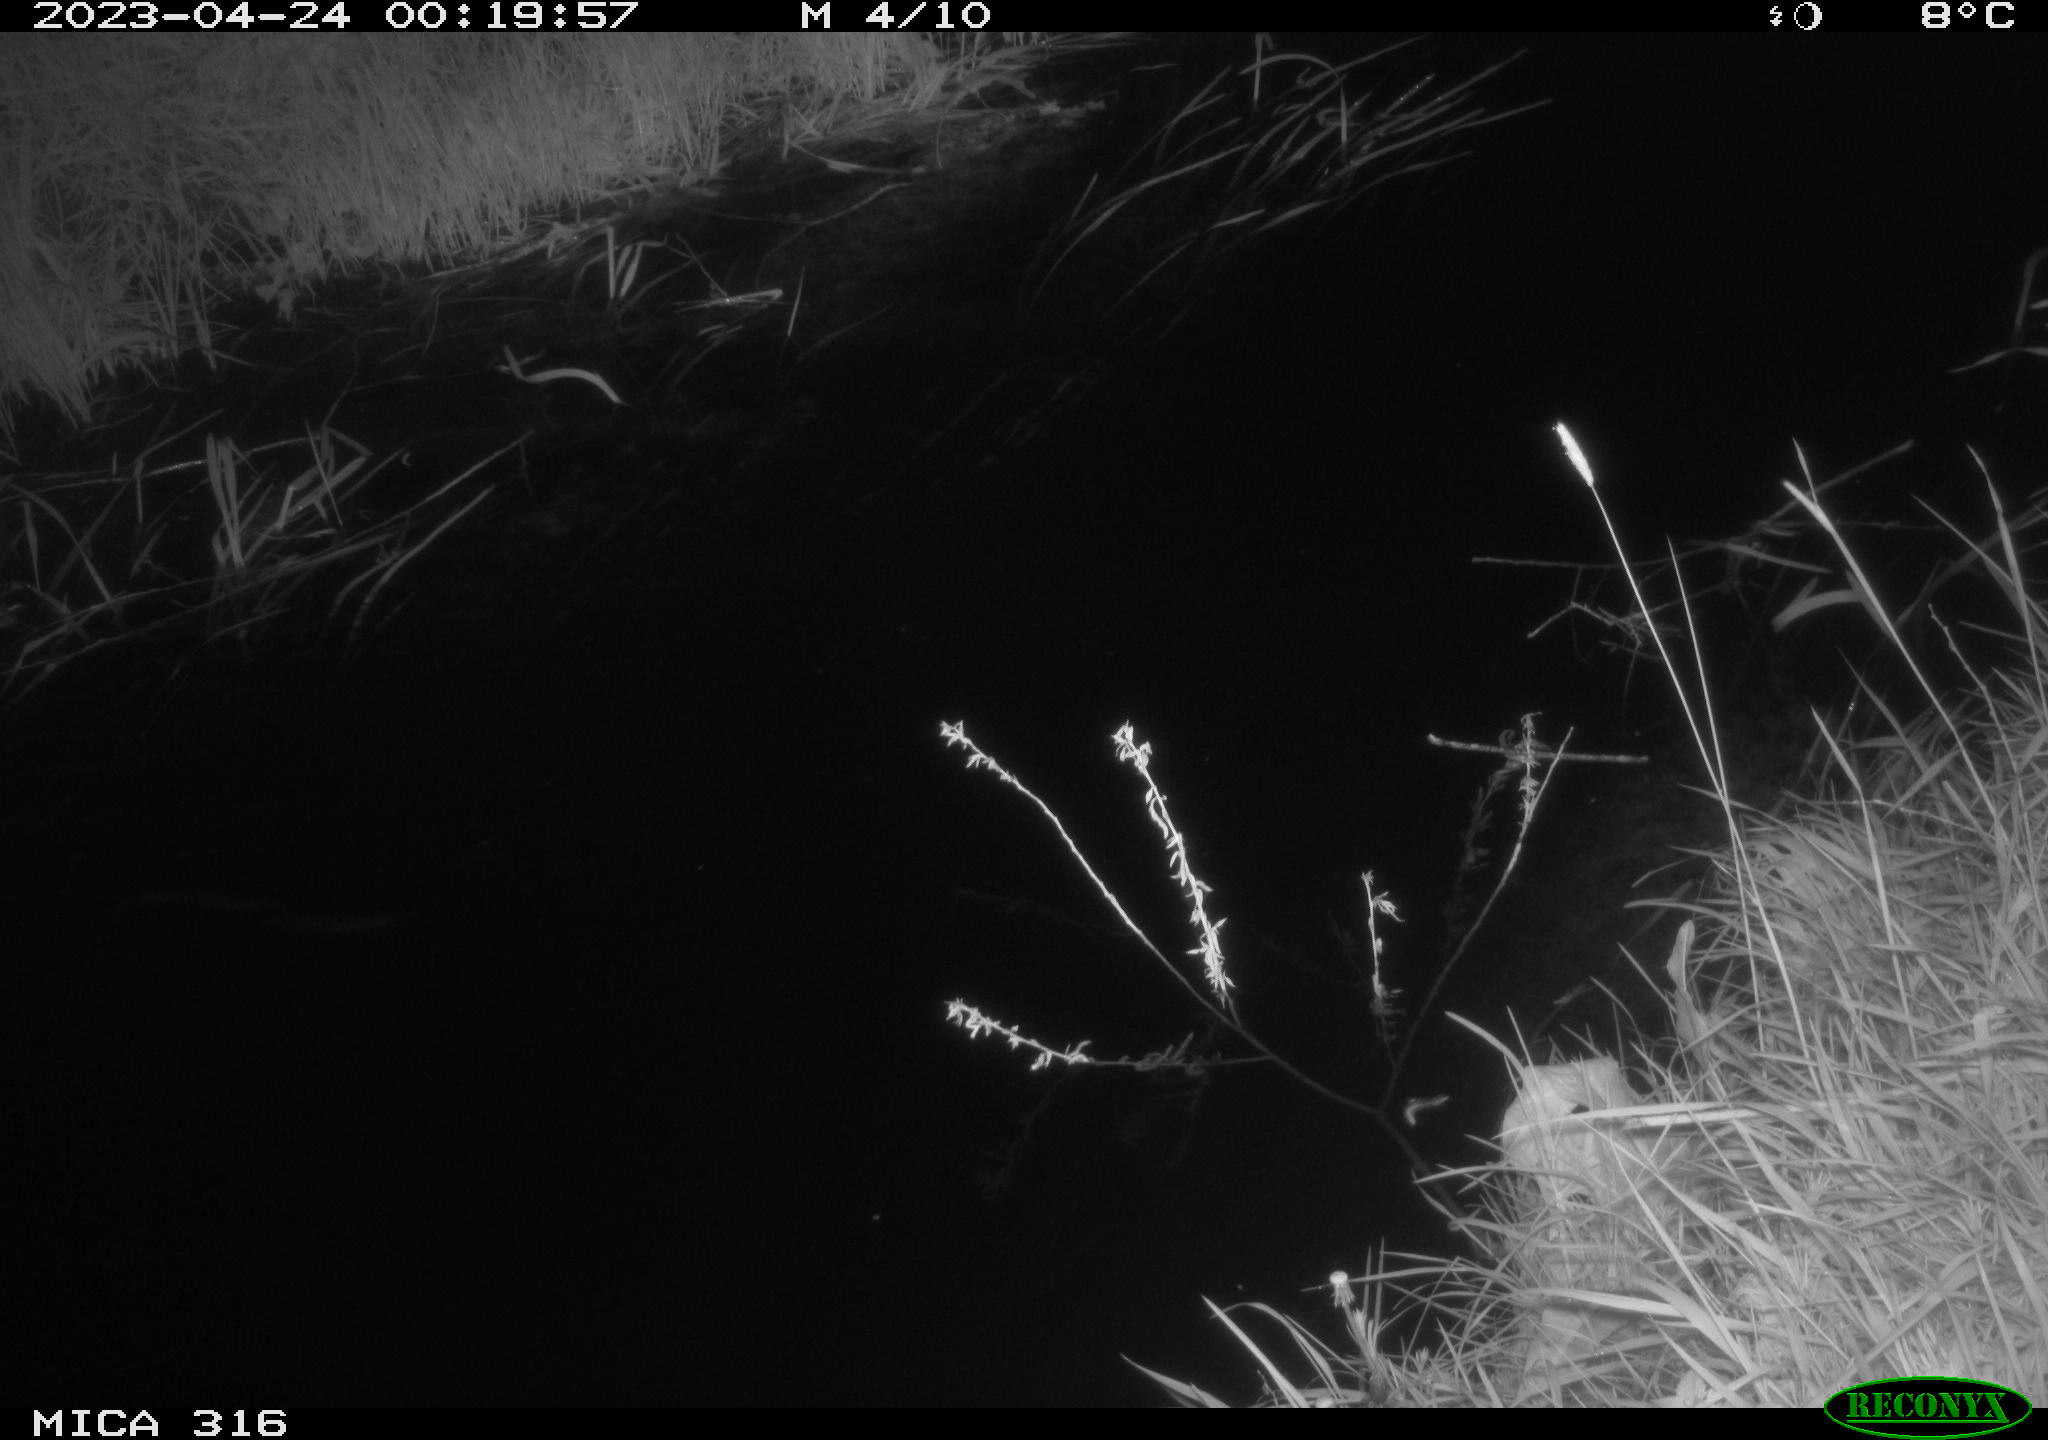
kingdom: Animalia
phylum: Chordata
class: Aves
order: Anseriformes
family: Anatidae
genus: Anas
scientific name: Anas
